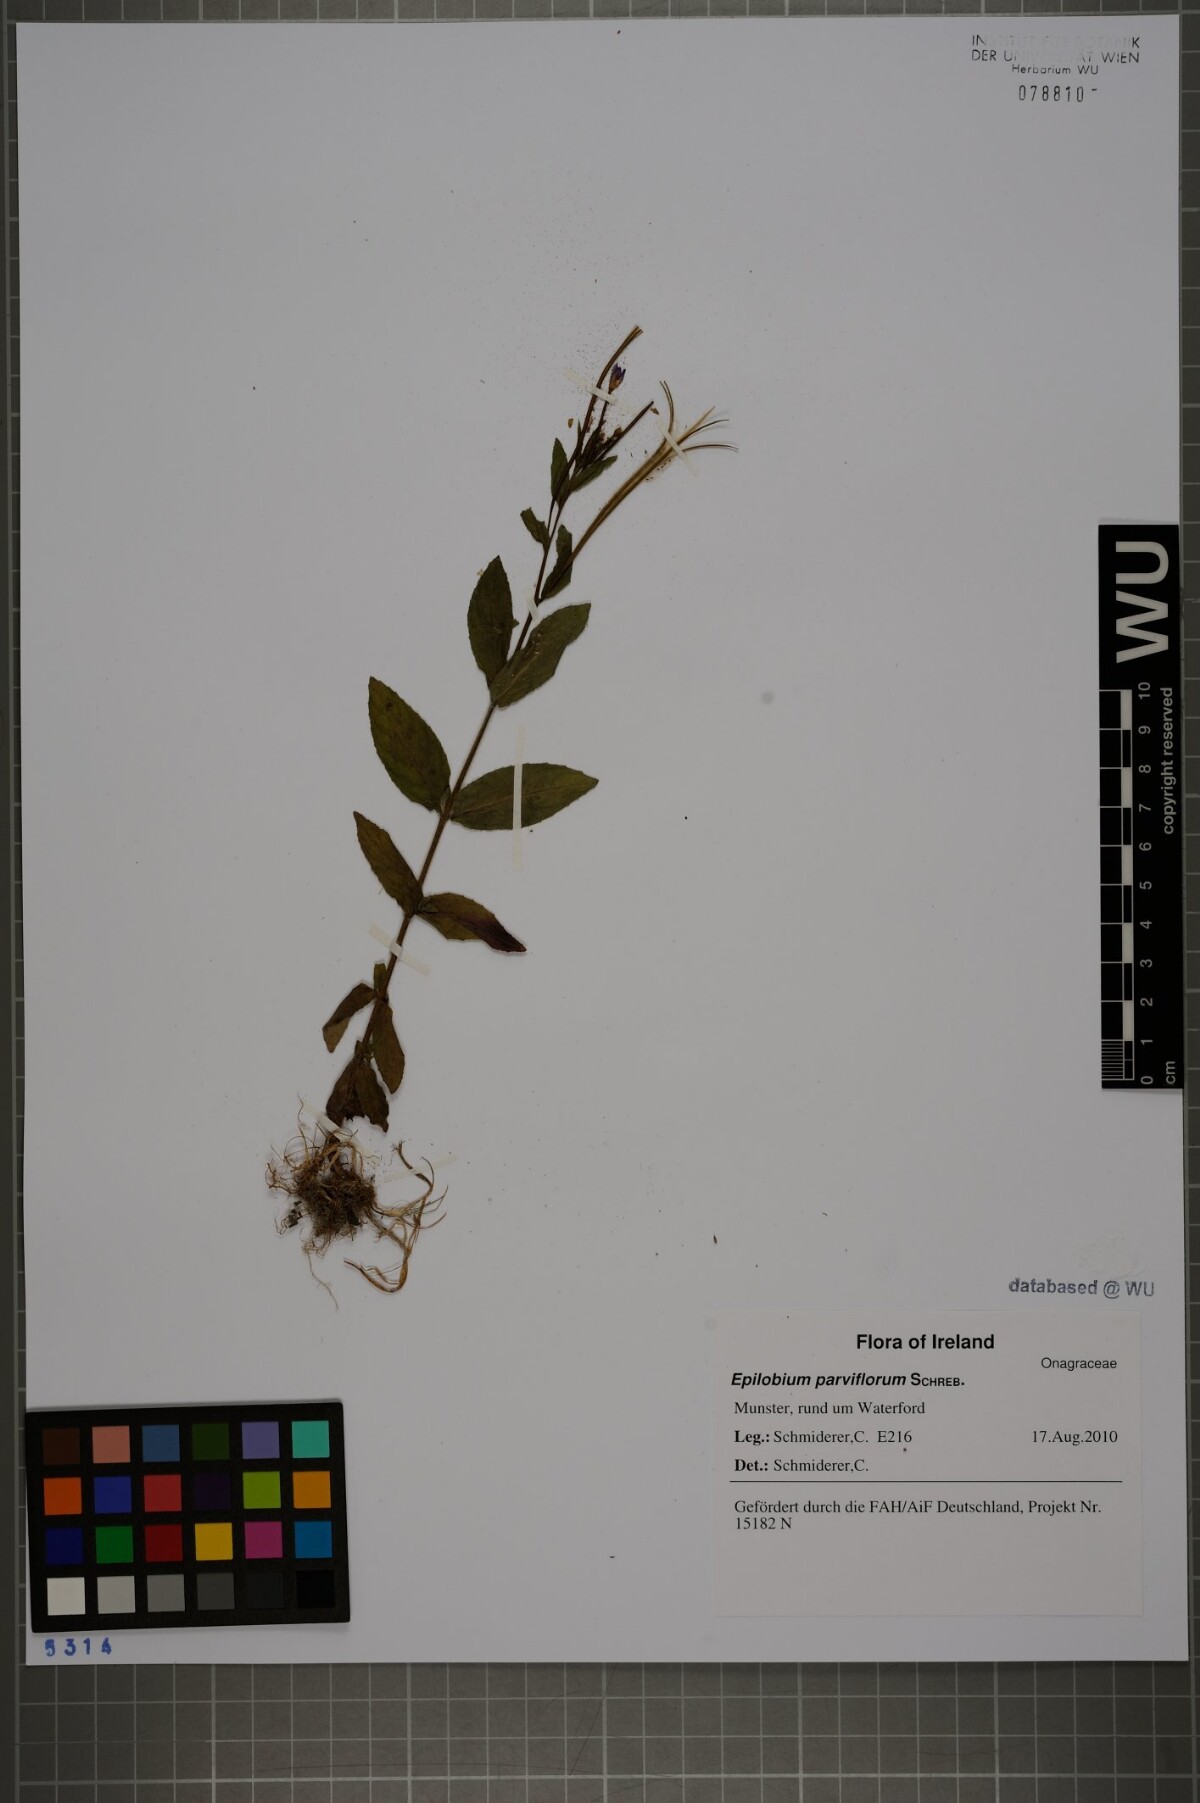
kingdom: Plantae
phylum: Tracheophyta
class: Magnoliopsida
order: Myrtales
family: Onagraceae
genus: Epilobium
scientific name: Epilobium parviflorum
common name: Hoary willowherb
